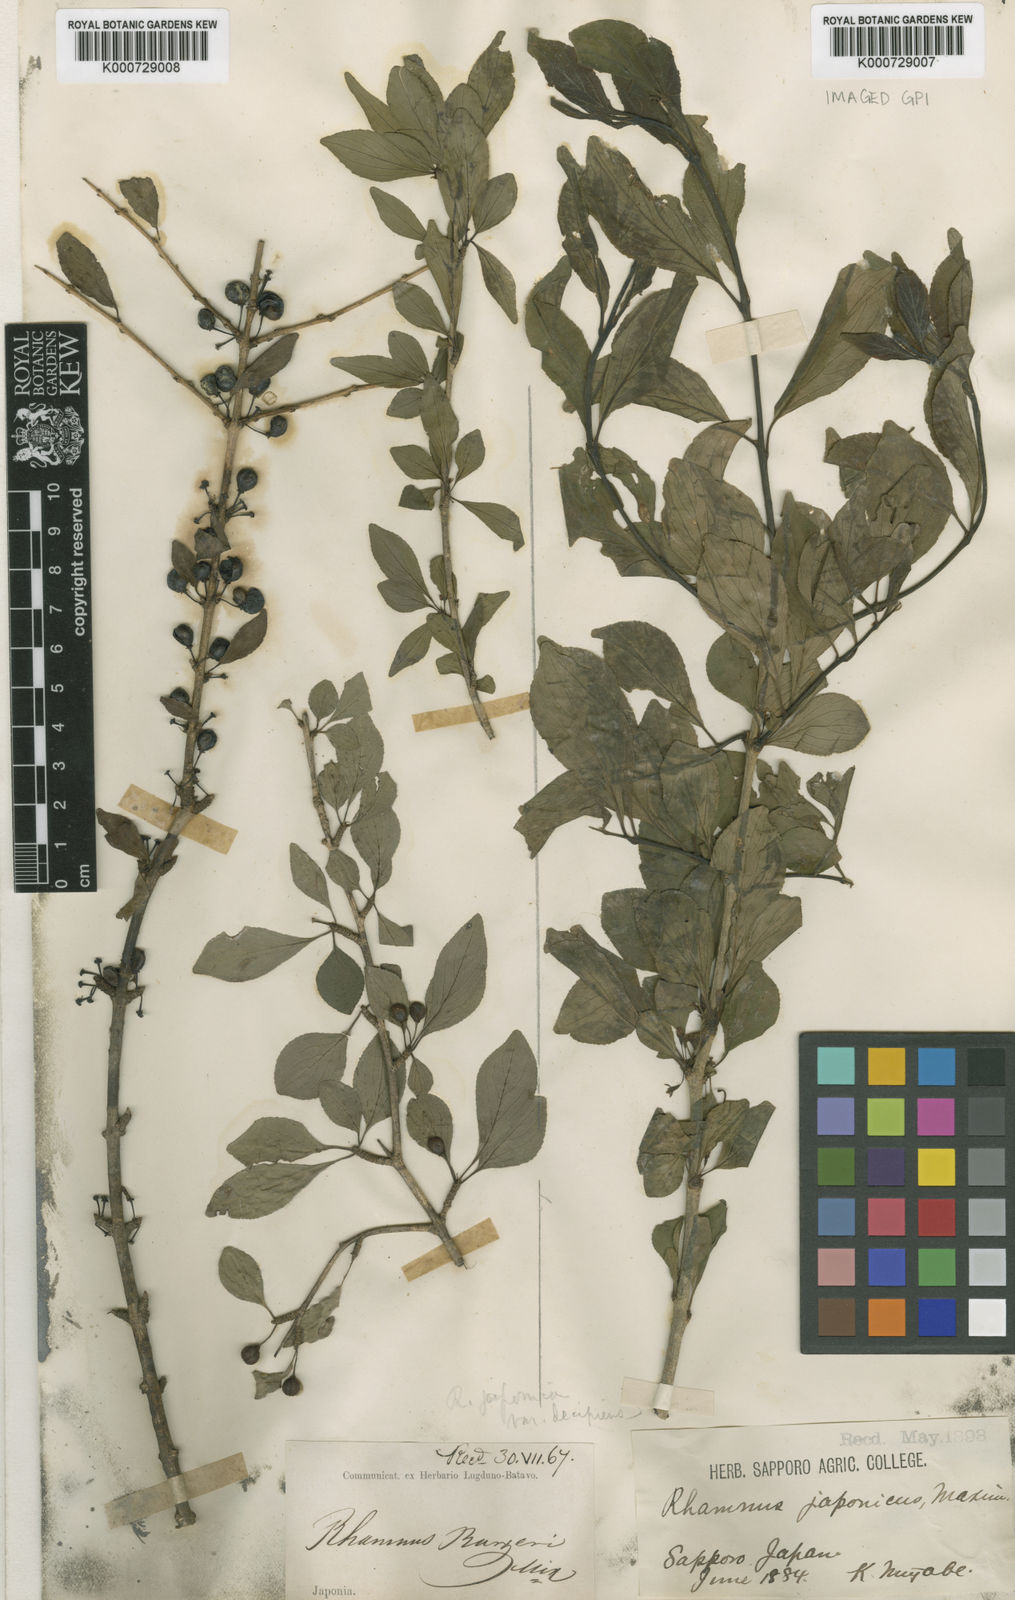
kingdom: Plantae
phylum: Tracheophyta
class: Magnoliopsida
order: Rosales
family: Rhamnaceae
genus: Rhamnus
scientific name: Rhamnus japonica
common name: Japanese buckthorn
